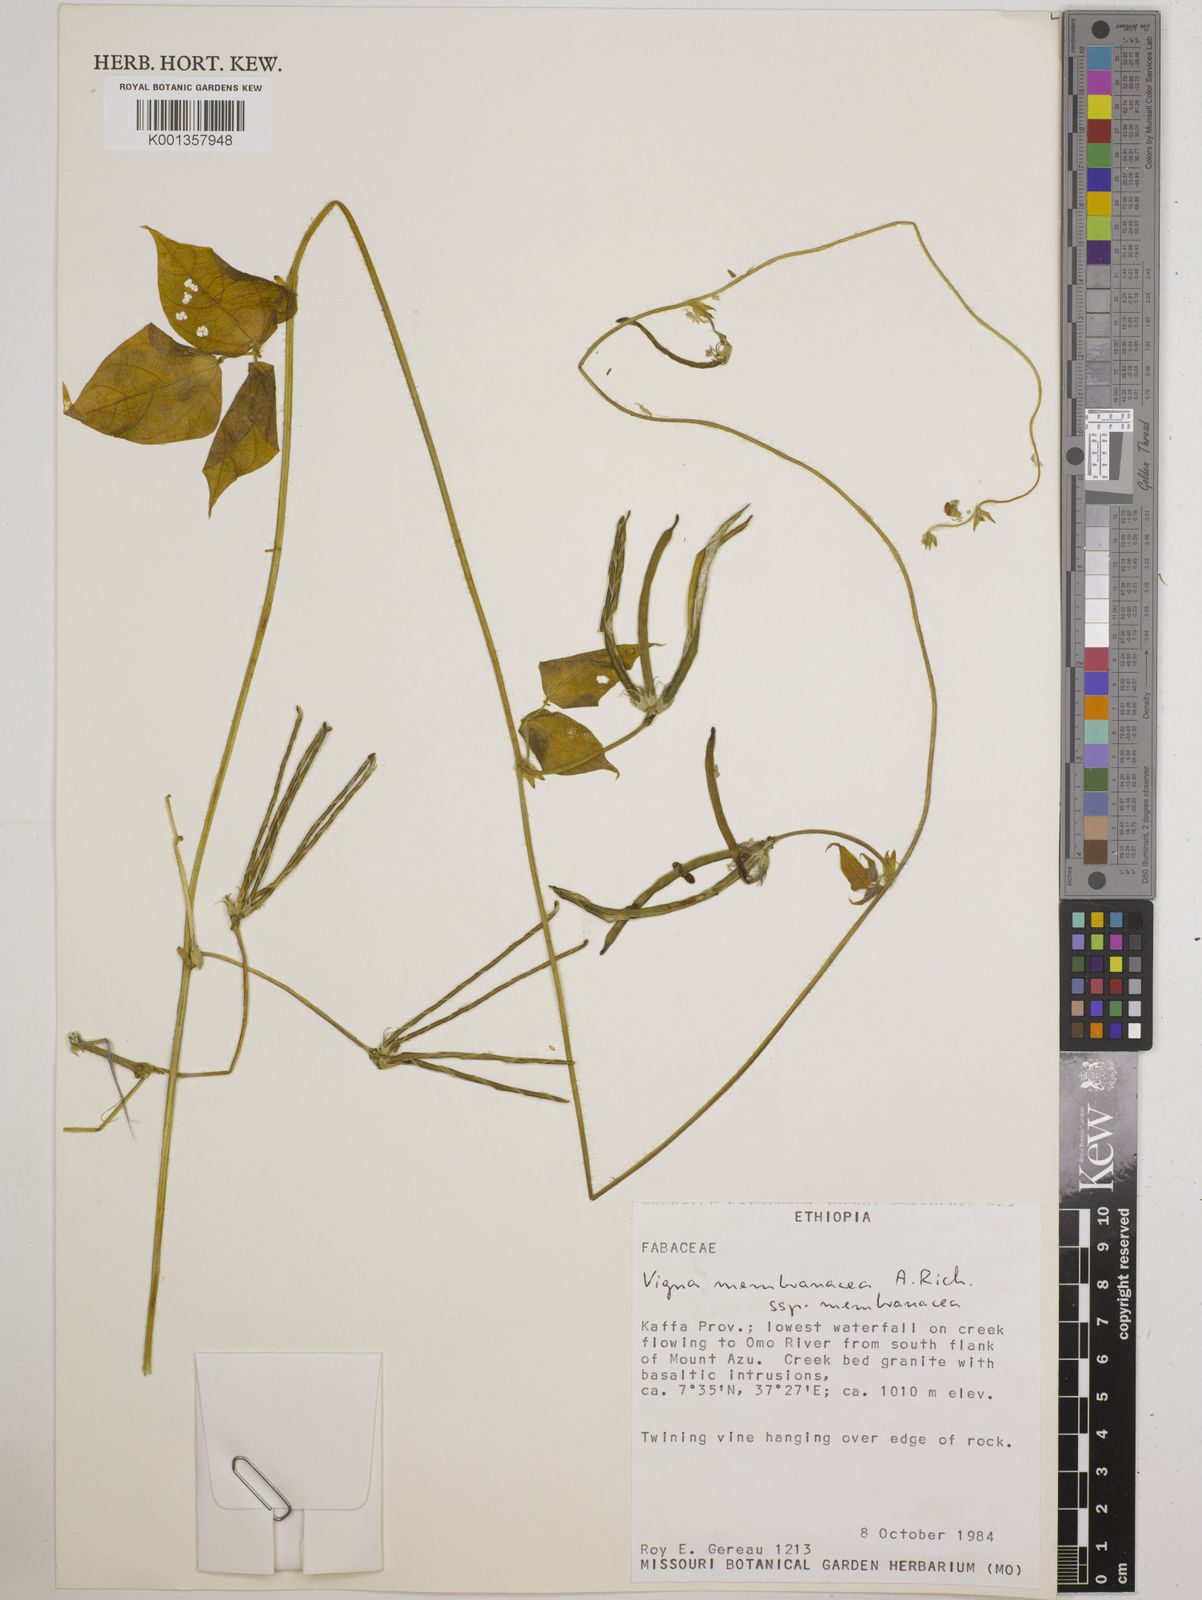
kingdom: Plantae
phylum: Tracheophyta
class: Magnoliopsida
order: Fabales
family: Fabaceae
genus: Vigna
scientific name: Vigna membranacea
